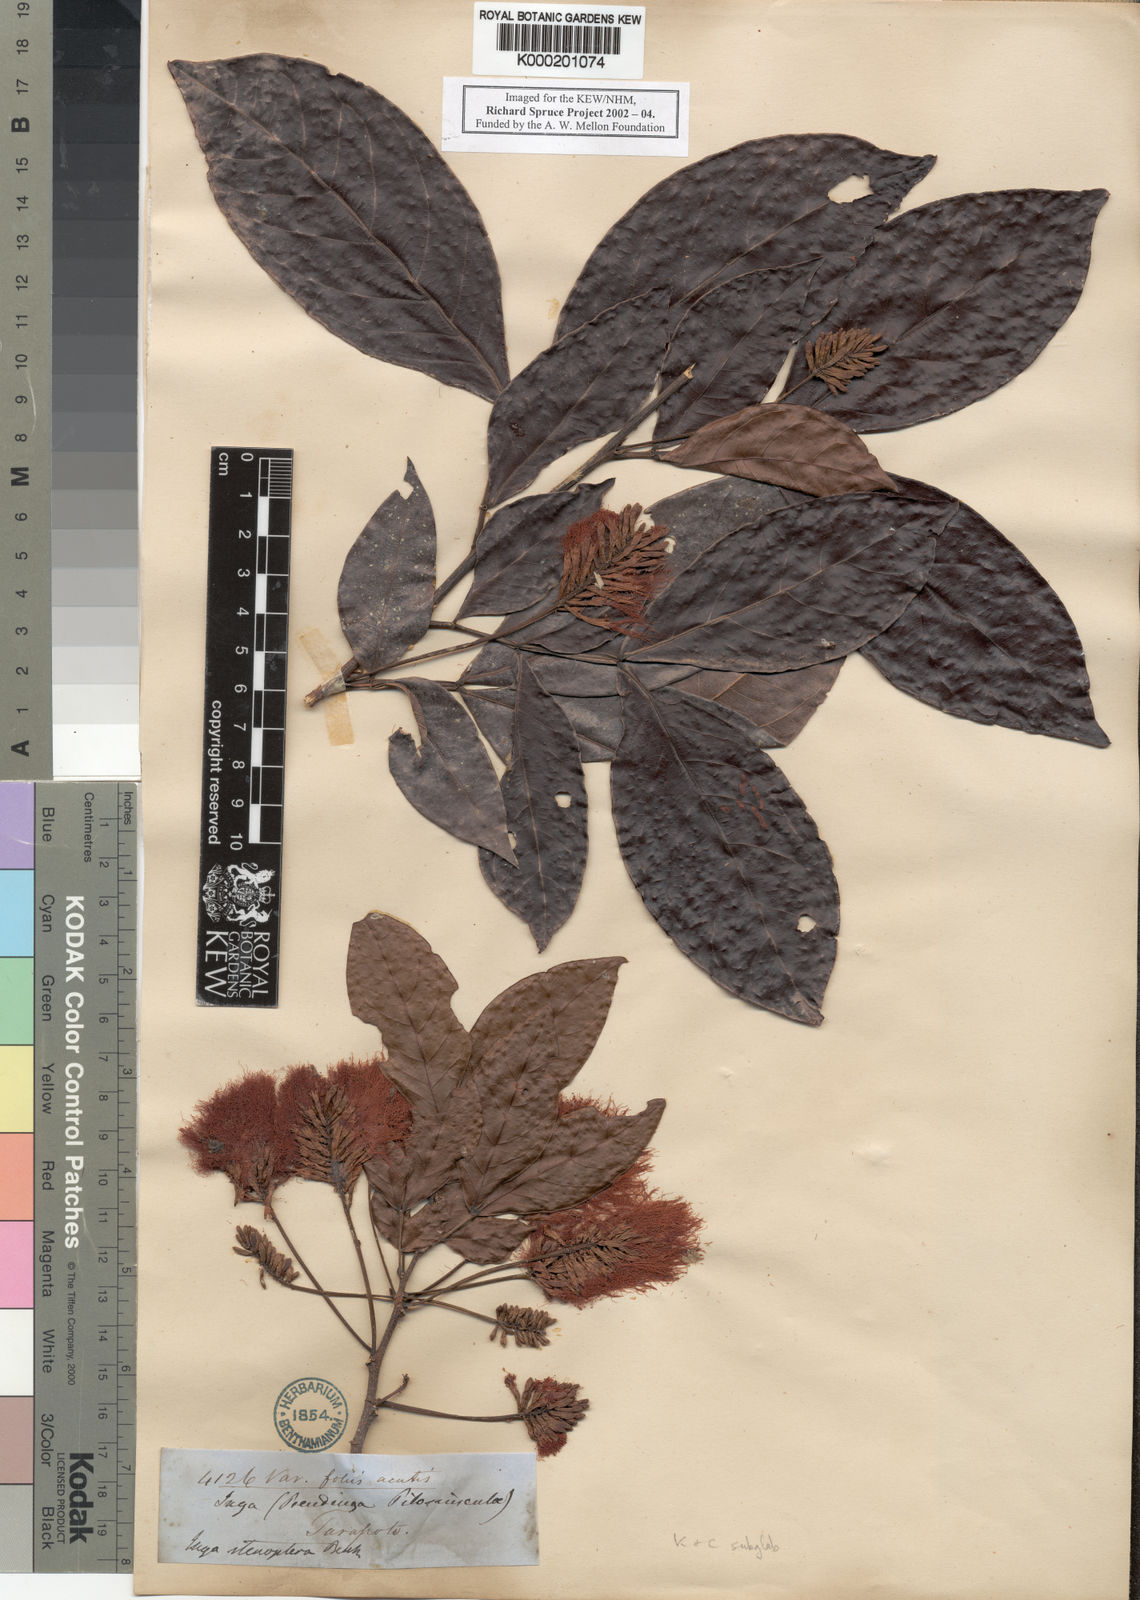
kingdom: Plantae
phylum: Tracheophyta
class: Magnoliopsida
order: Fabales
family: Fabaceae
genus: Inga
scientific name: Inga tenuicalyx
